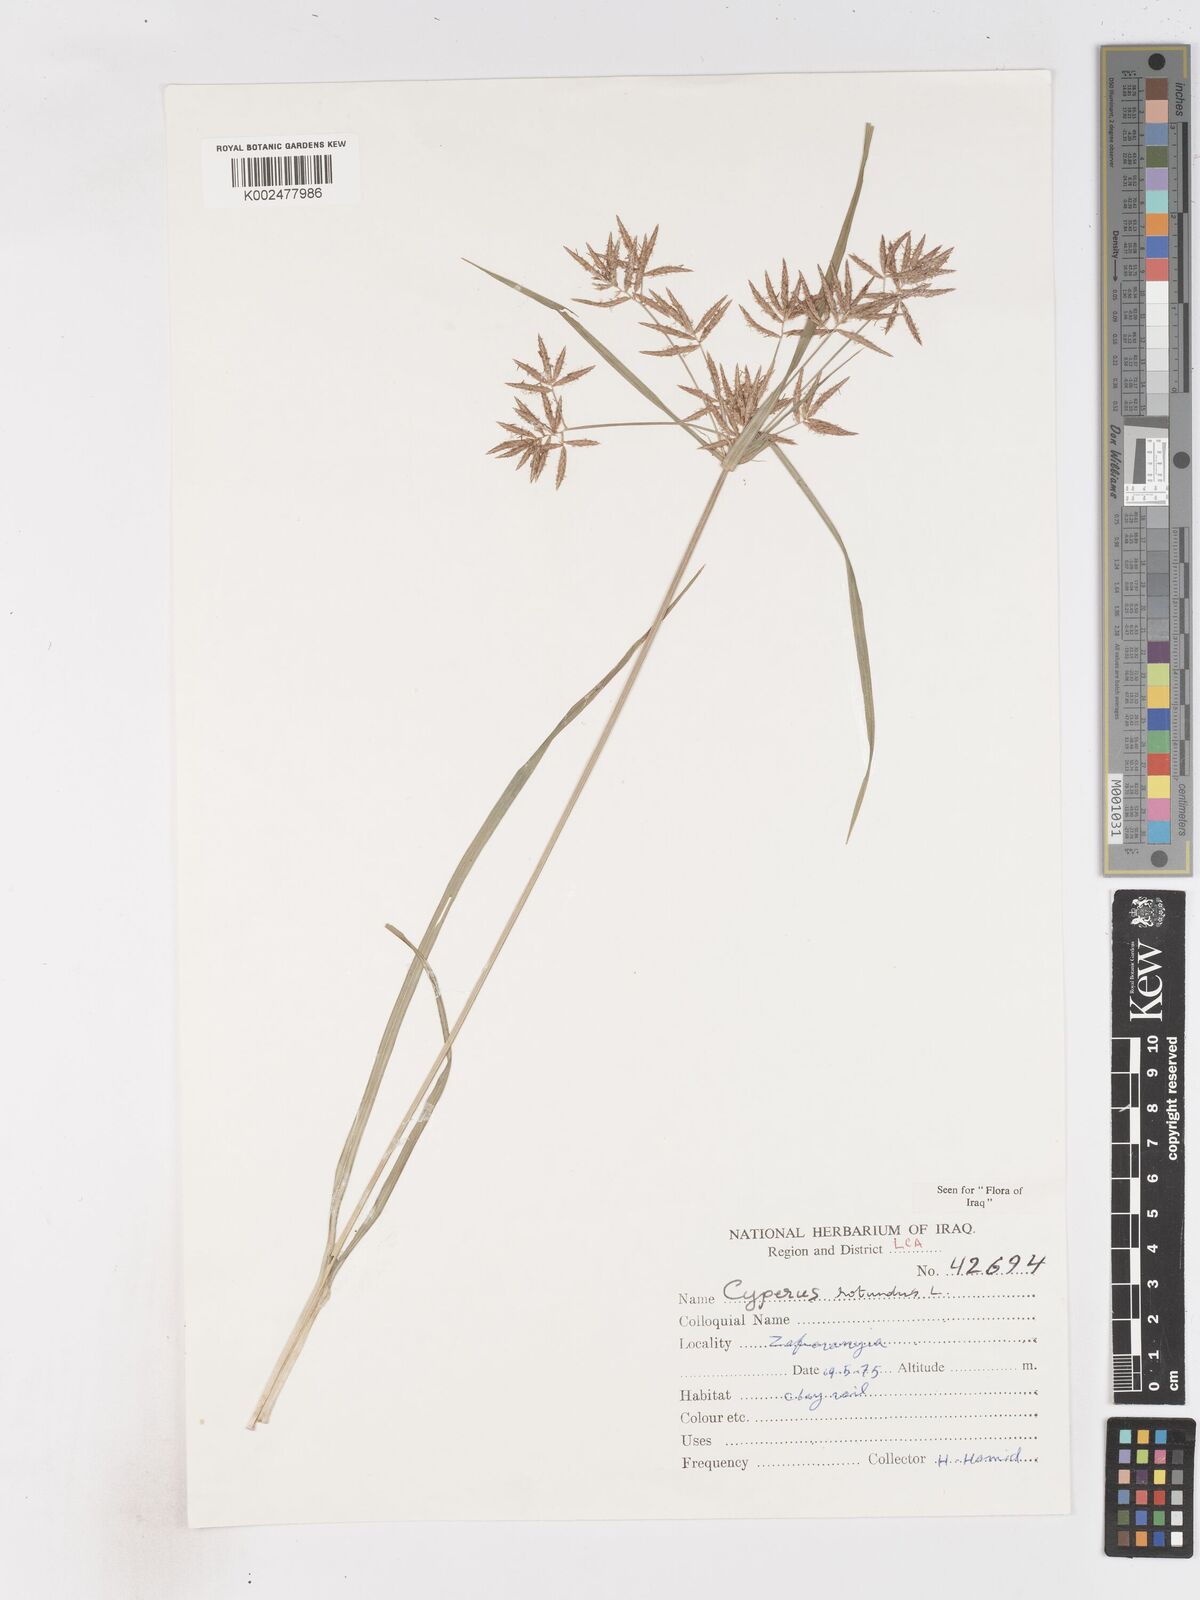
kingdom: Plantae
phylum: Tracheophyta
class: Liliopsida
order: Poales
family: Cyperaceae
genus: Cyperus
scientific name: Cyperus rotundus
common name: Nutgrass
